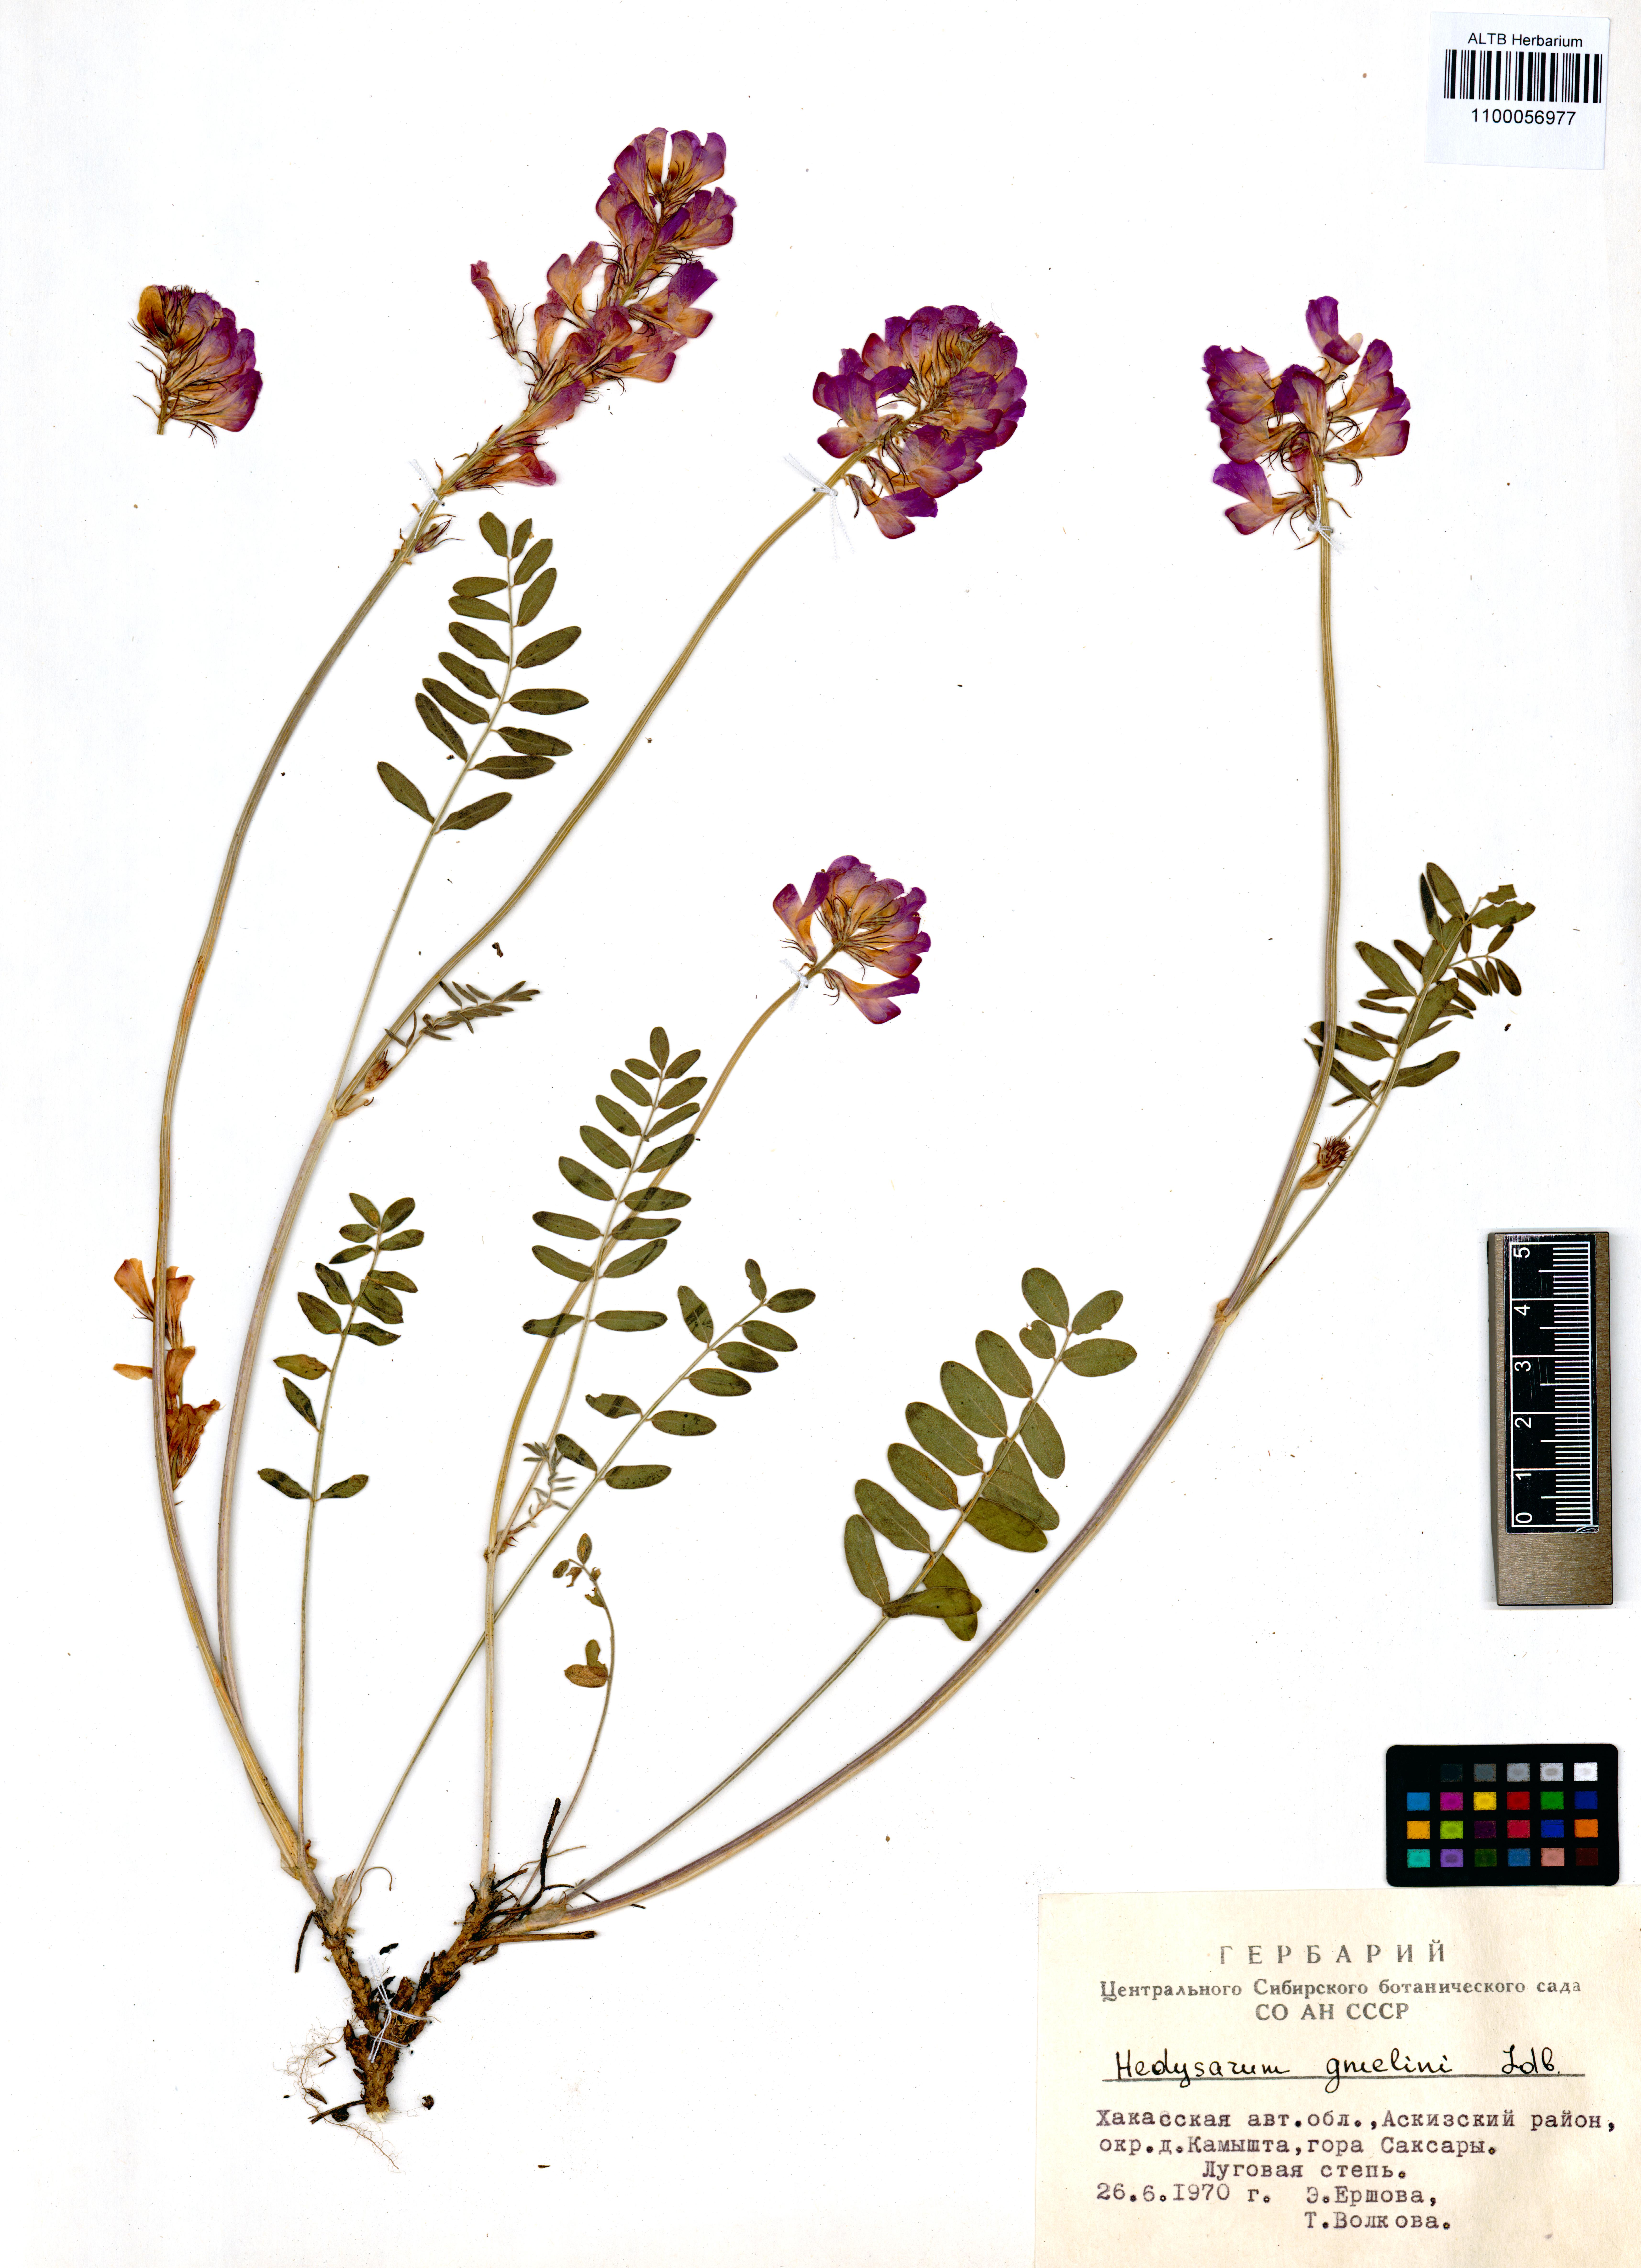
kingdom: Plantae
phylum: Tracheophyta
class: Magnoliopsida
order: Fabales
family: Fabaceae
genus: Hedysarum
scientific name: Hedysarum gmelinii
